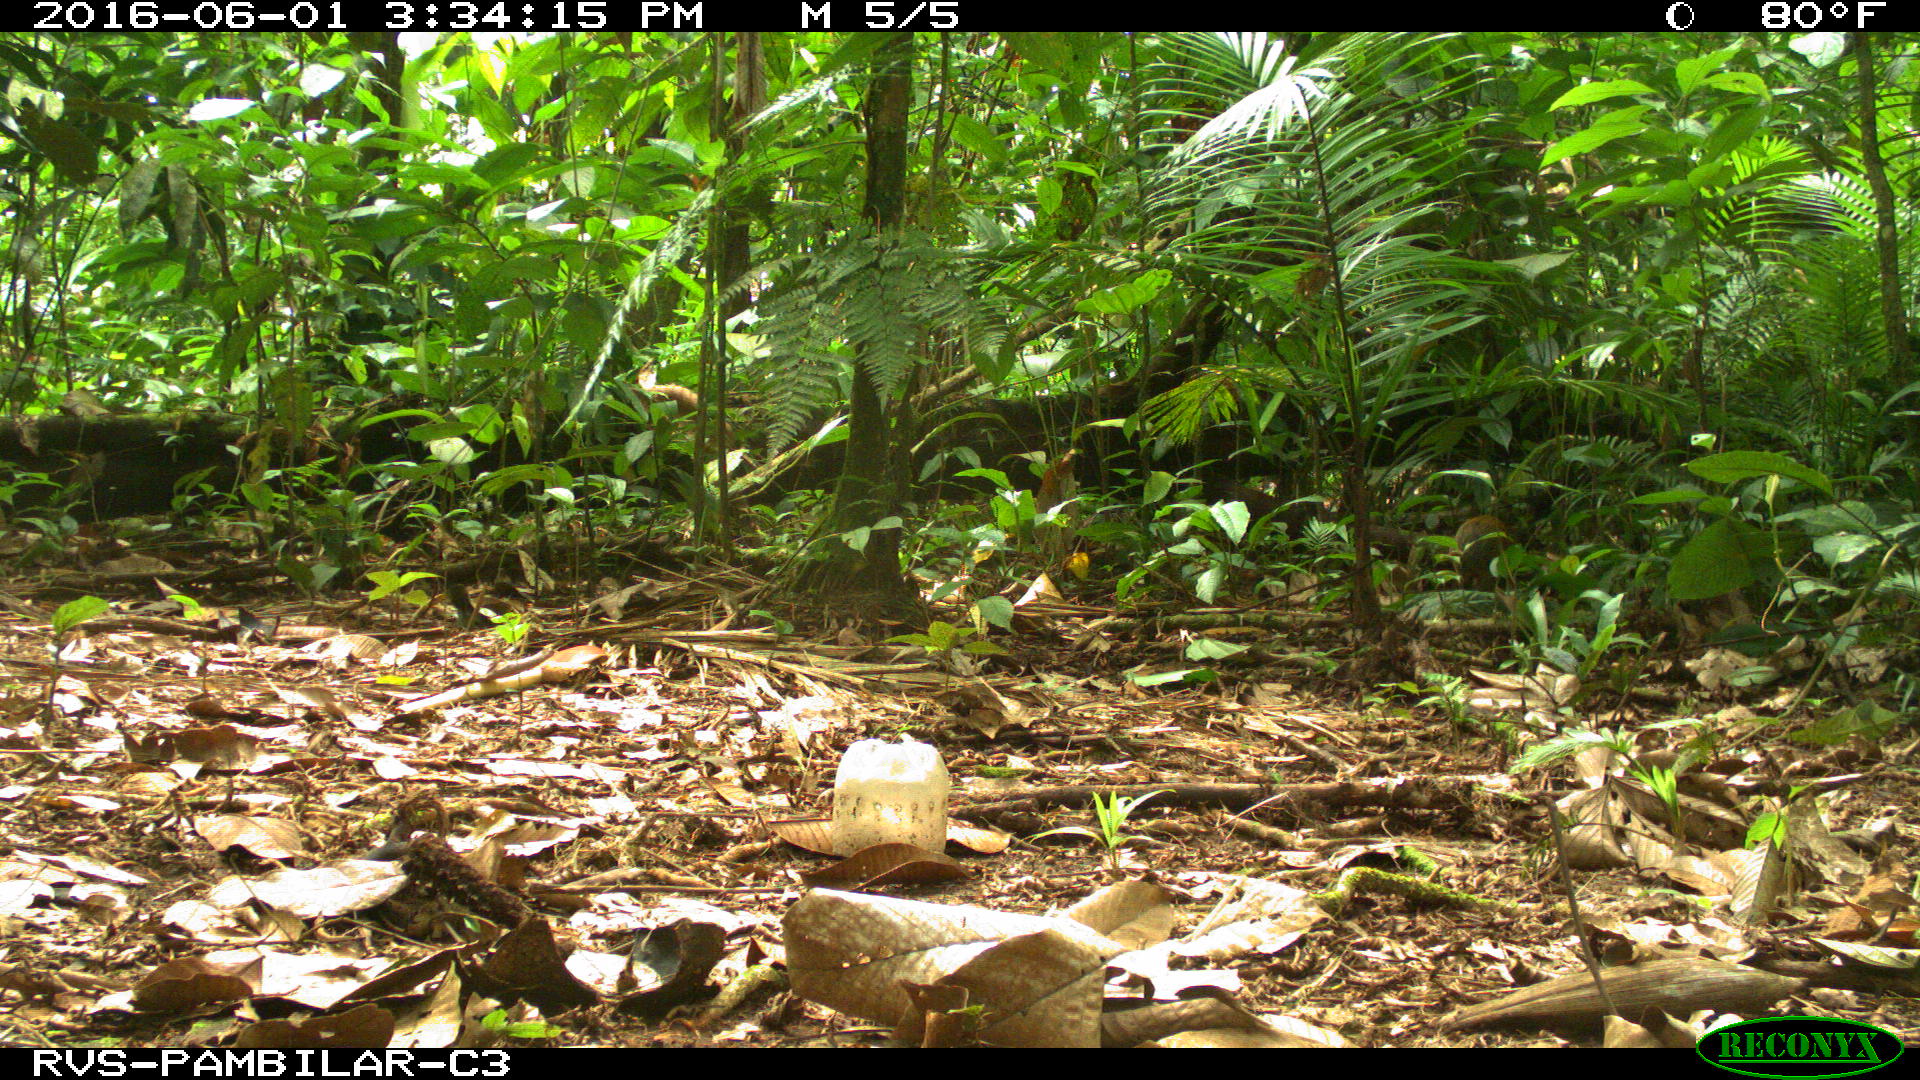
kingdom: Animalia
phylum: Chordata
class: Mammalia
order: Rodentia
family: Dasyproctidae
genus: Dasyprocta
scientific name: Dasyprocta punctata
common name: Central american agouti
